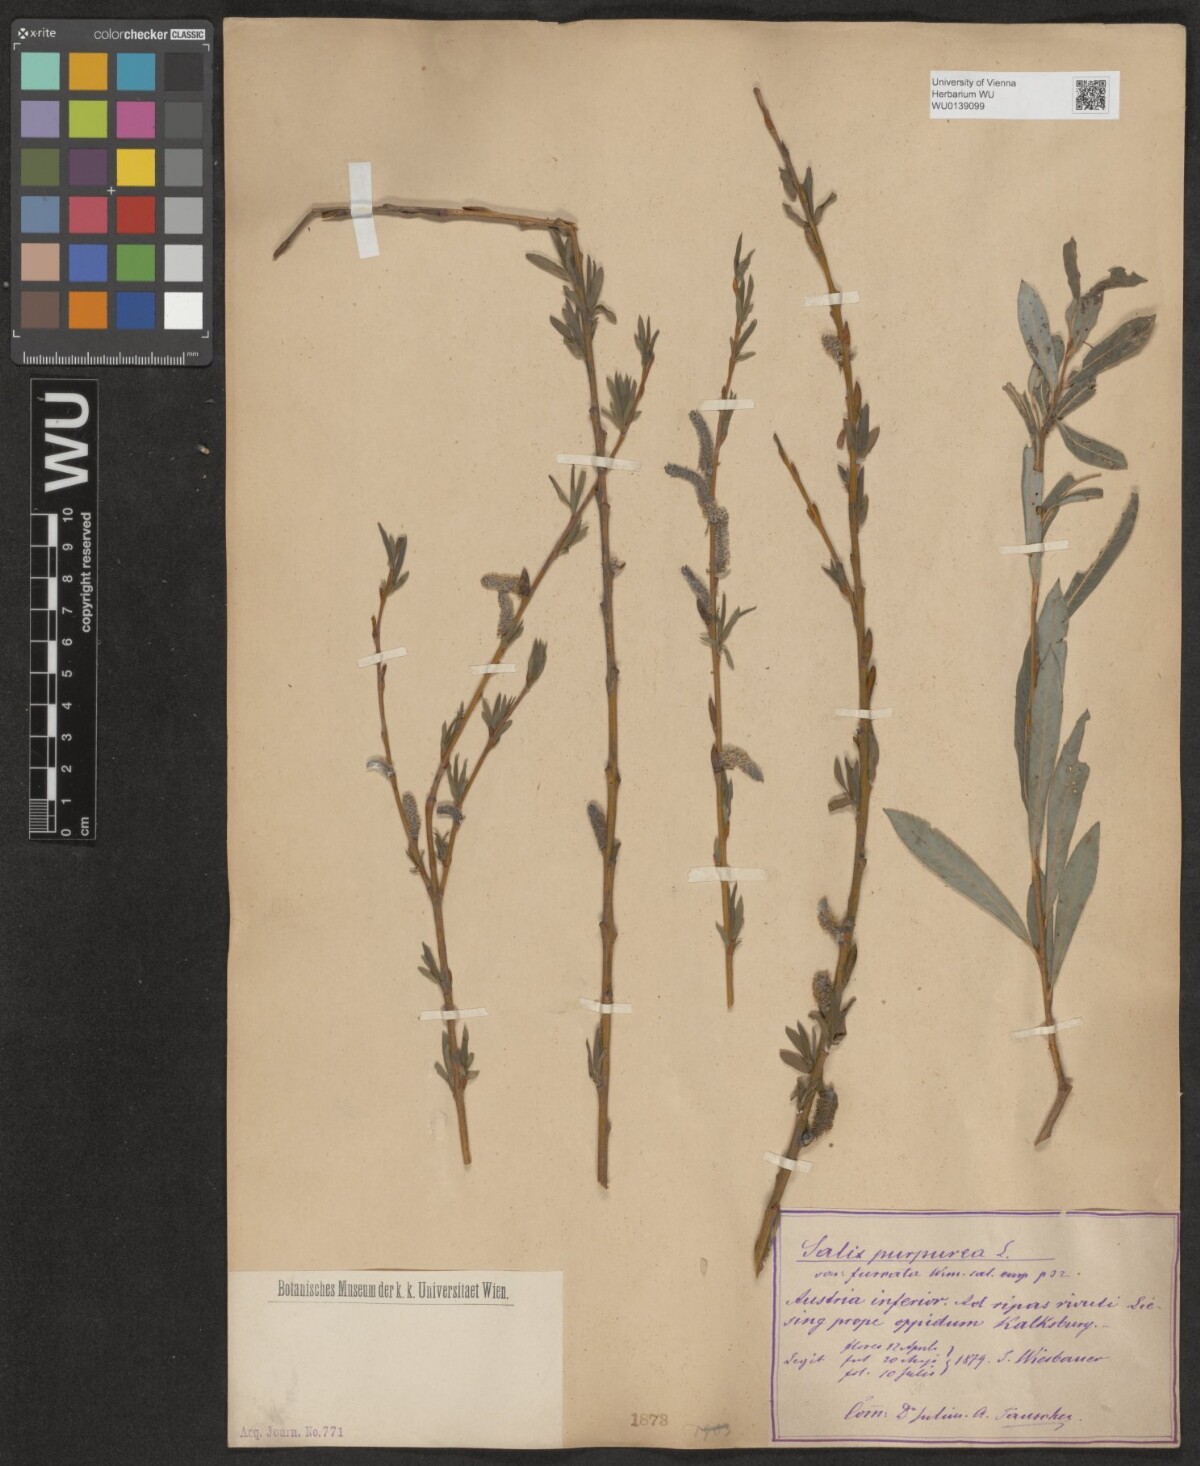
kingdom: Plantae
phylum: Tracheophyta
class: Magnoliopsida
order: Malpighiales
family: Salicaceae
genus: Salix
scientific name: Salix purpurea
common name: Purple willow
